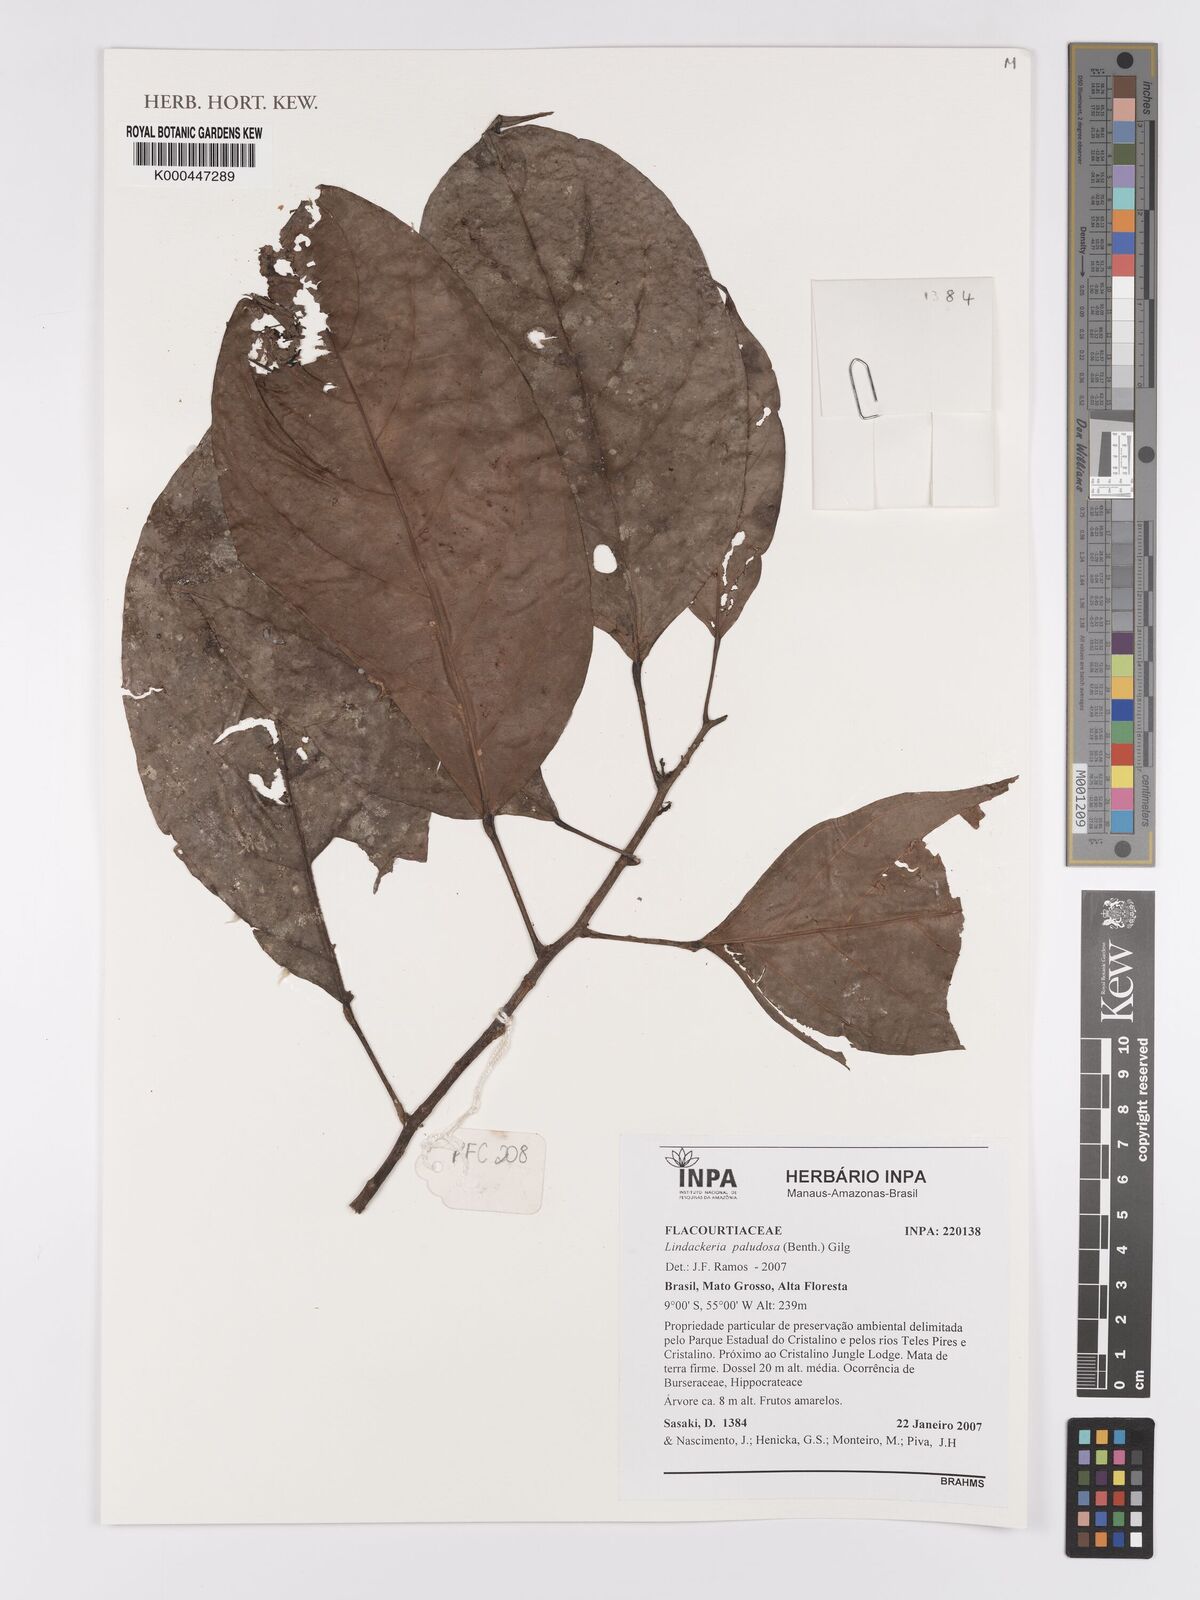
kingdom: Plantae
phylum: Tracheophyta
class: Magnoliopsida
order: Malpighiales
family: Achariaceae
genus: Lindackeria
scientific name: Lindackeria paludosa
